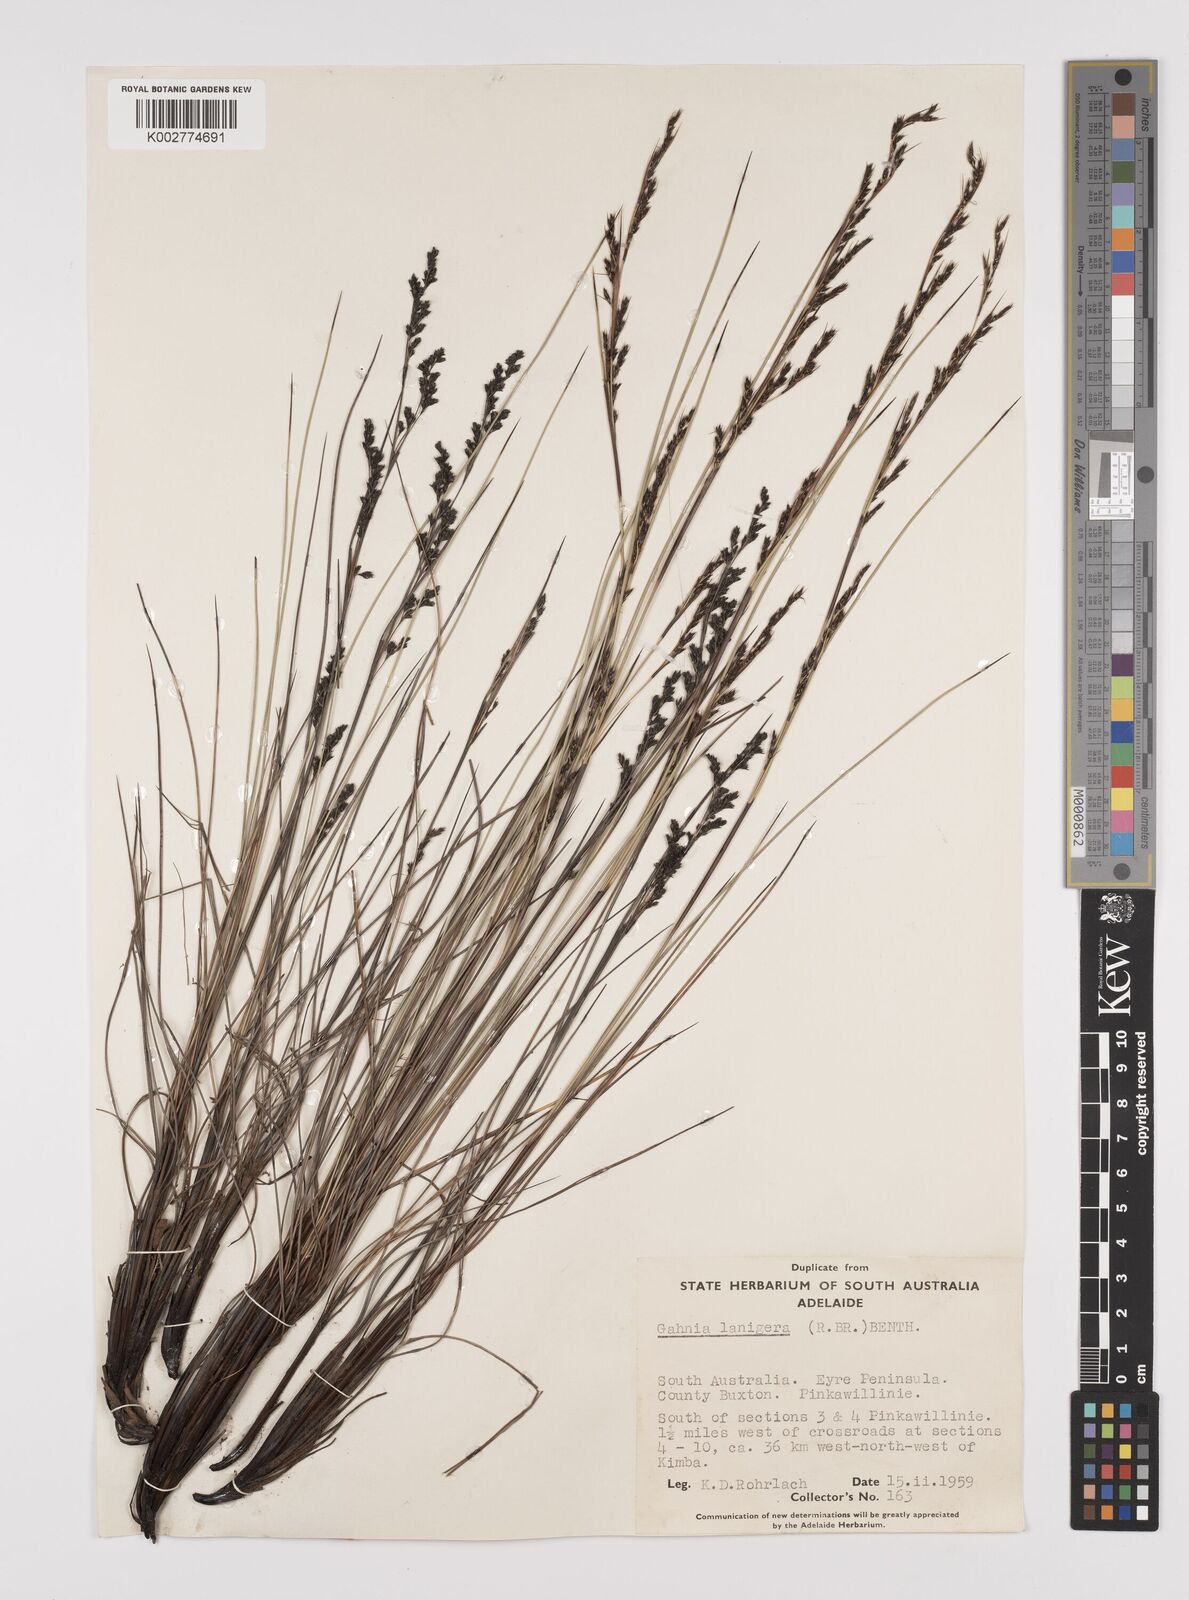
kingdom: Plantae
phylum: Tracheophyta
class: Liliopsida
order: Poales
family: Cyperaceae
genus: Gahnia
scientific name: Gahnia lanigera
